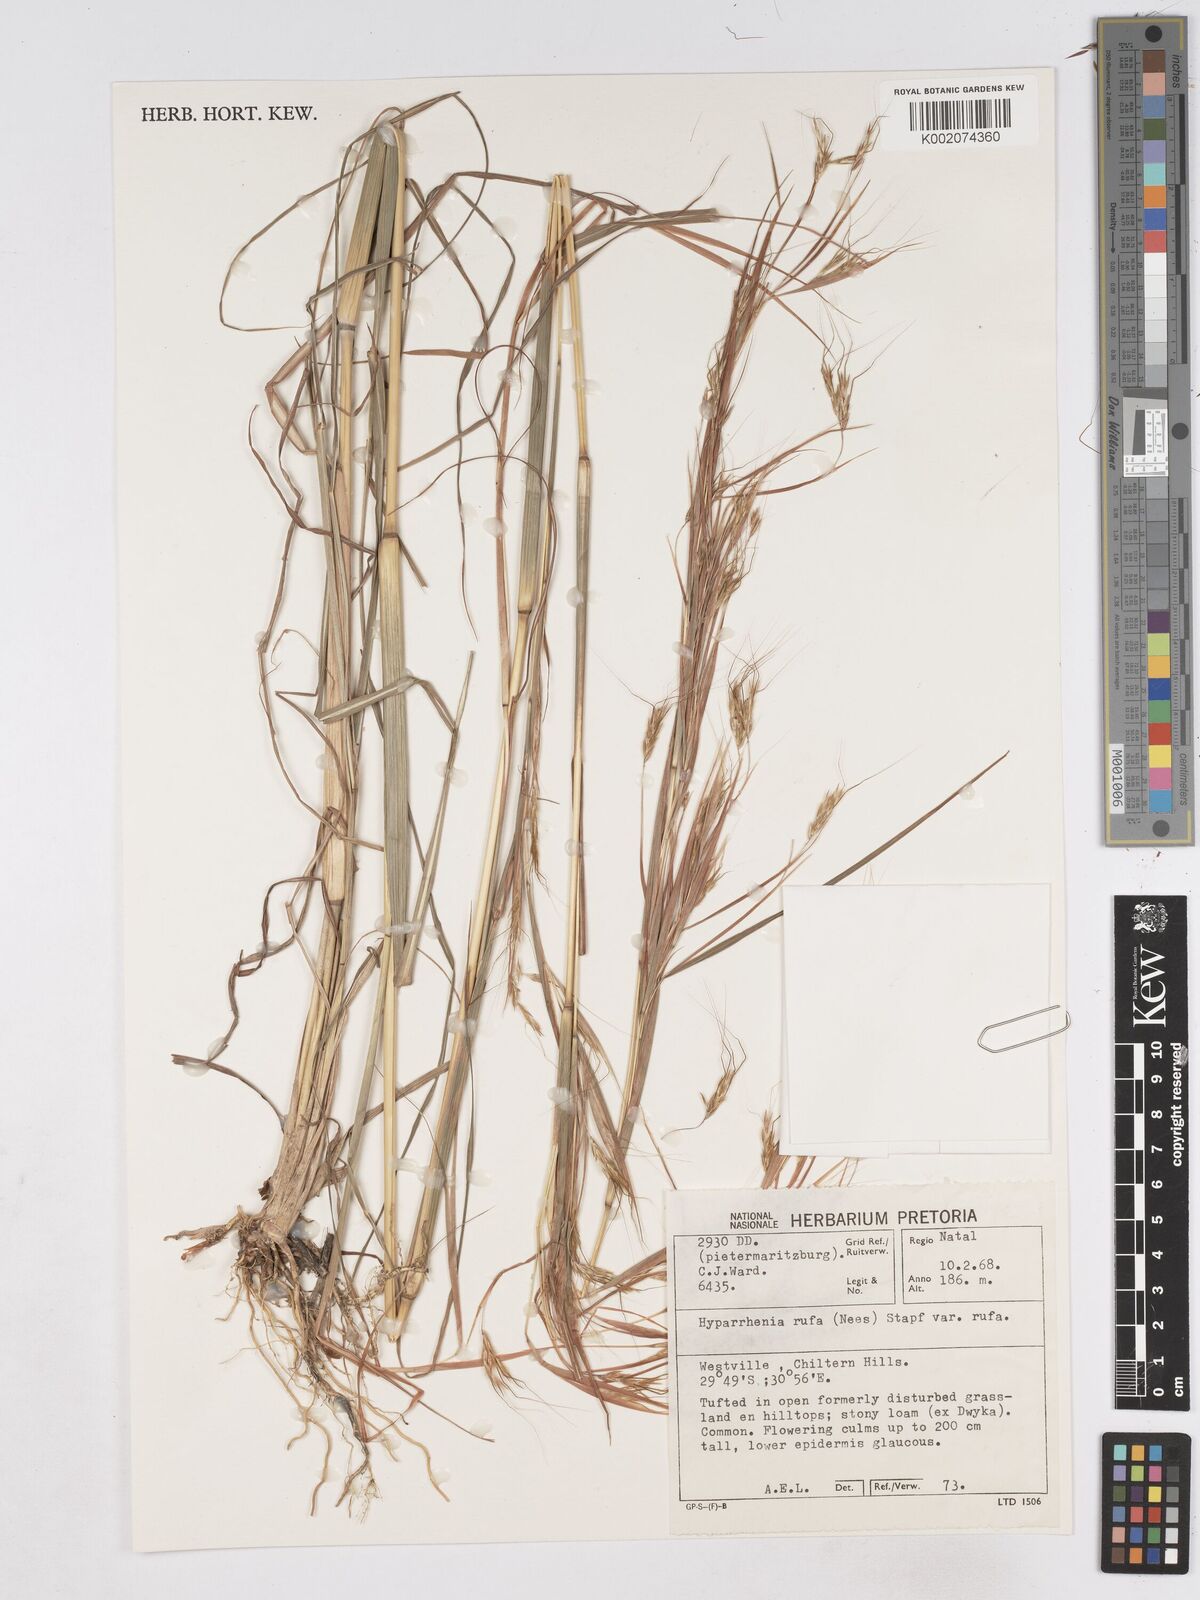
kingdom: Plantae
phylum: Tracheophyta
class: Liliopsida
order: Poales
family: Poaceae
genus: Hyparrhenia
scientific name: Hyparrhenia rufa
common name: Jaraguagrass
